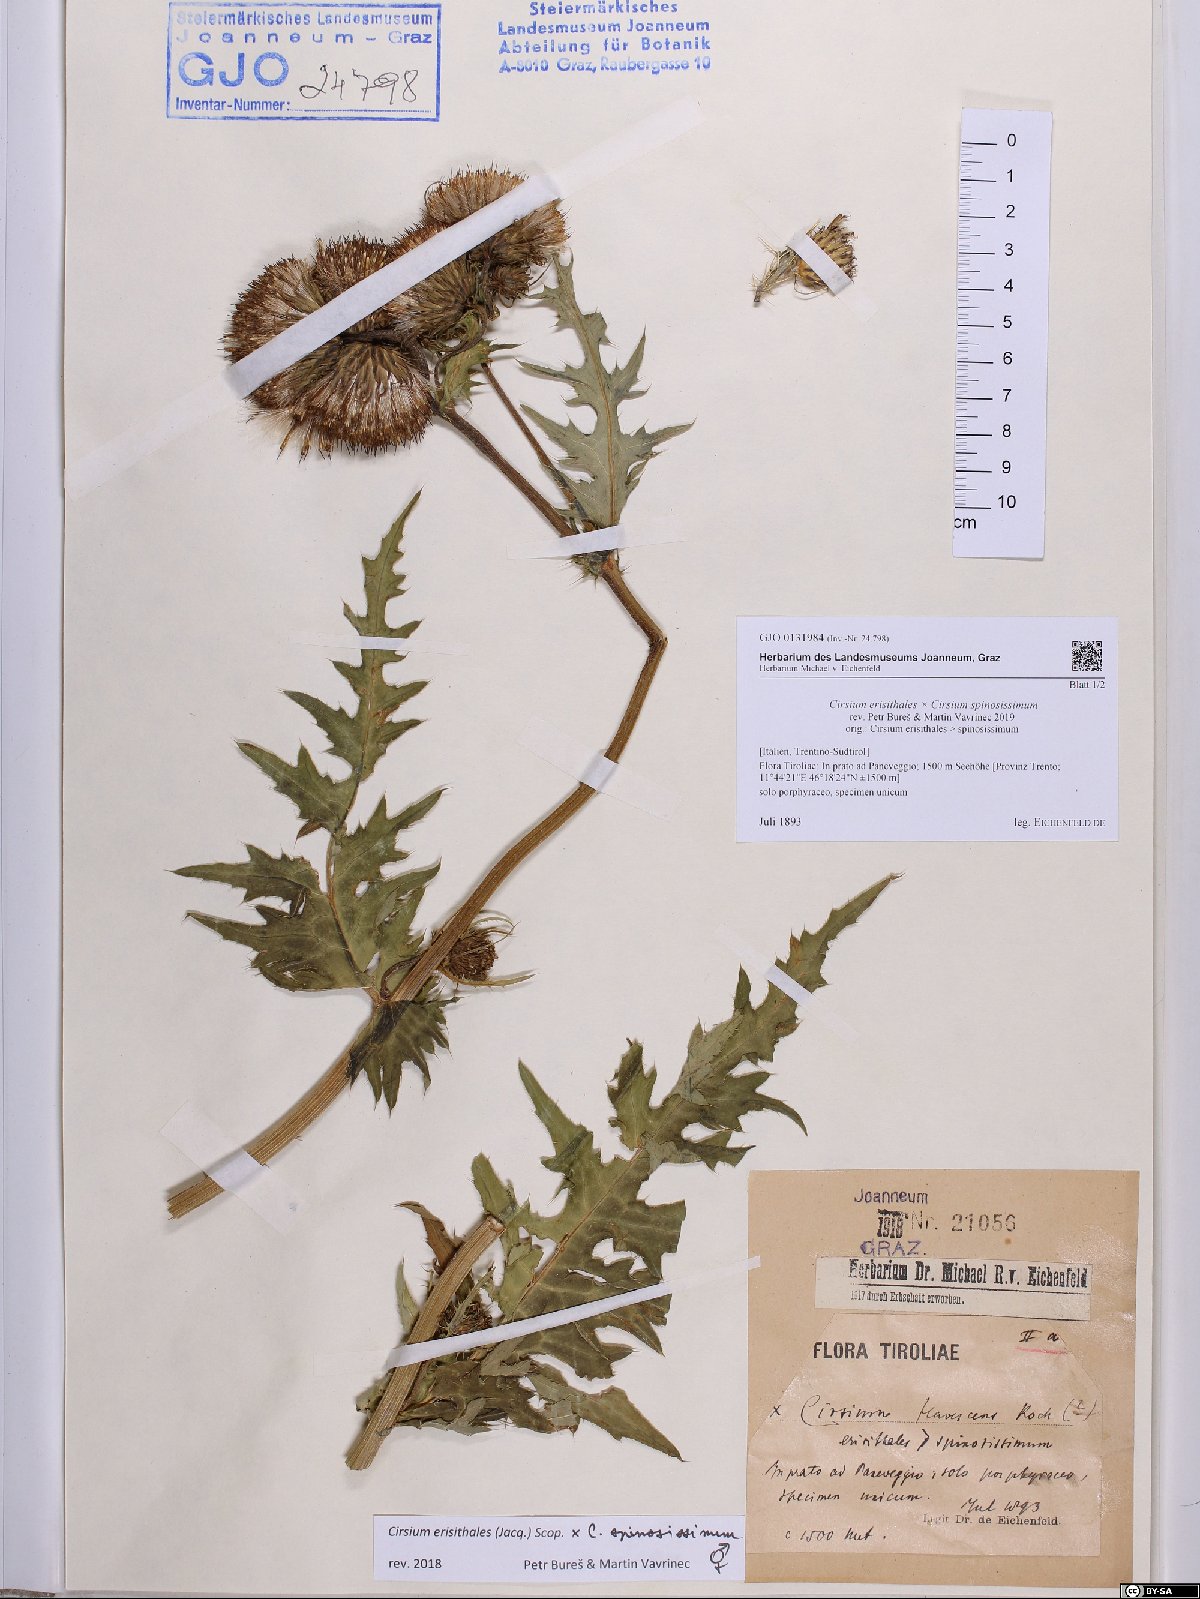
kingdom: Plantae
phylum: Tracheophyta
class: Magnoliopsida
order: Asterales
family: Asteraceae
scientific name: Asteraceae
